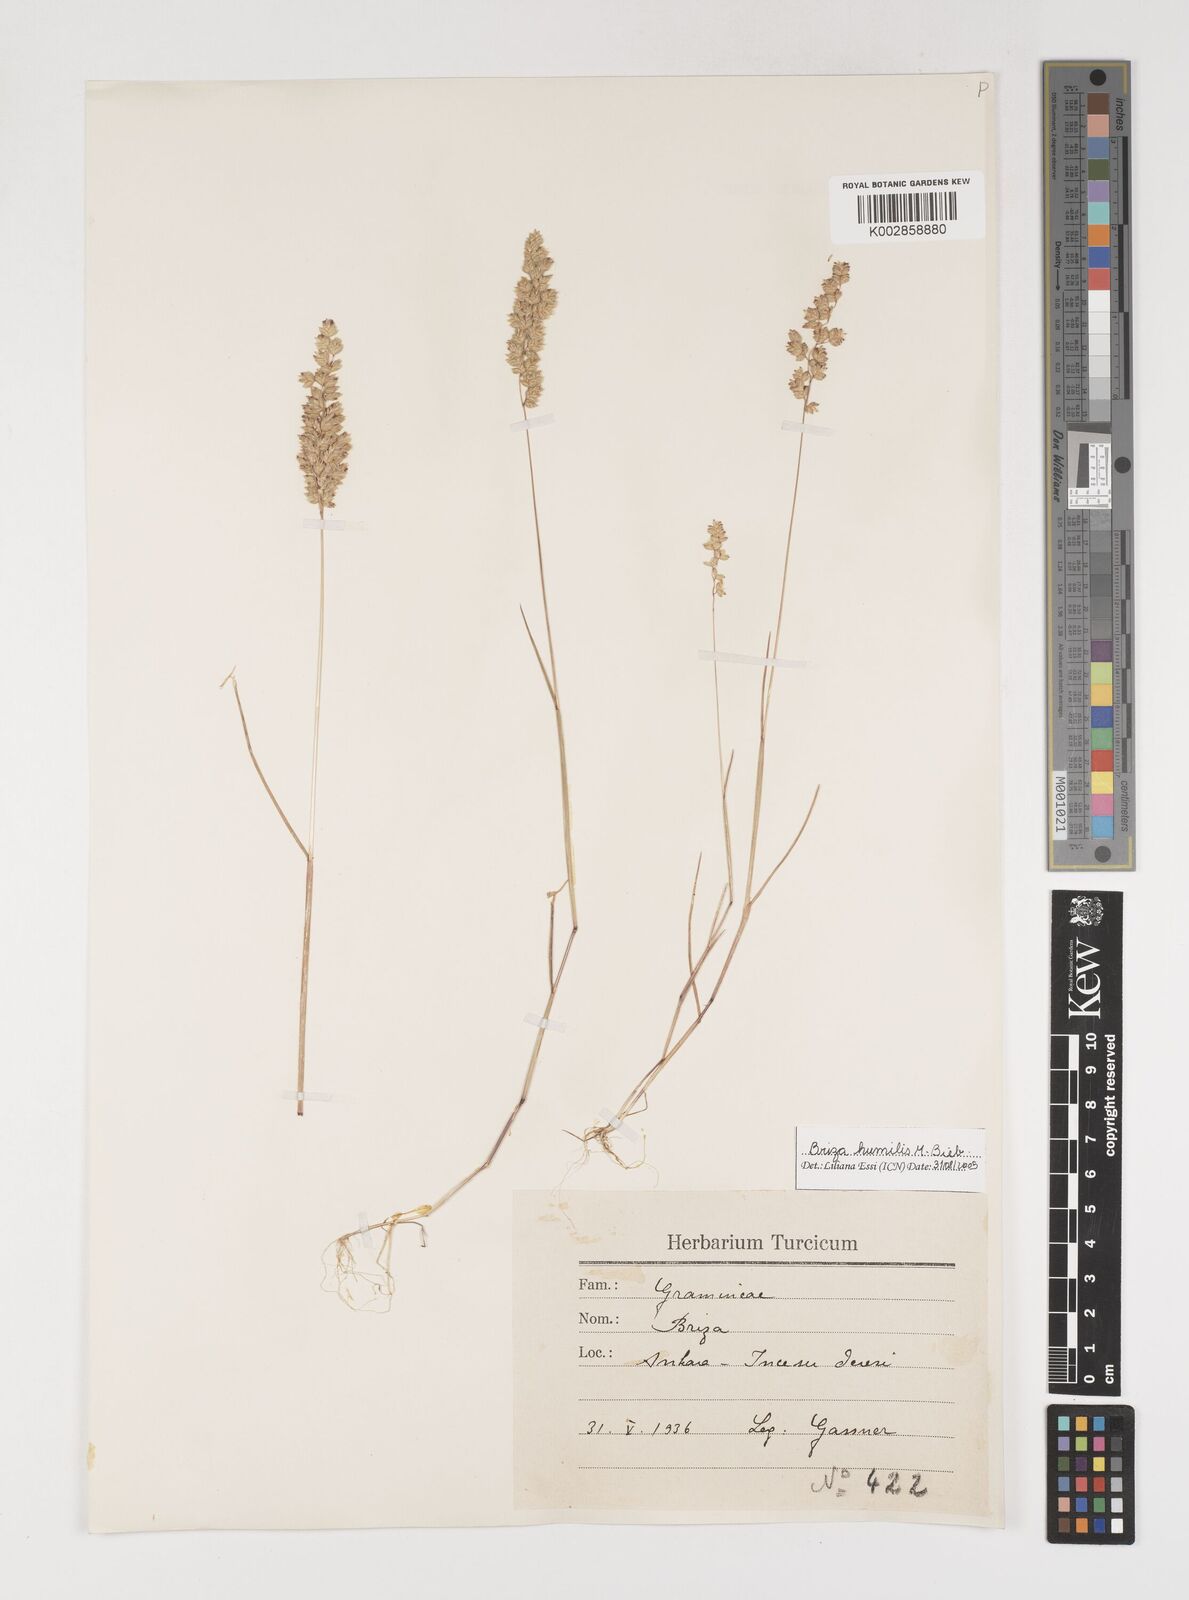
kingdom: Plantae
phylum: Tracheophyta
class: Liliopsida
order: Poales
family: Poaceae
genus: Briza
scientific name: Briza humilis
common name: Spiked quaking grass
